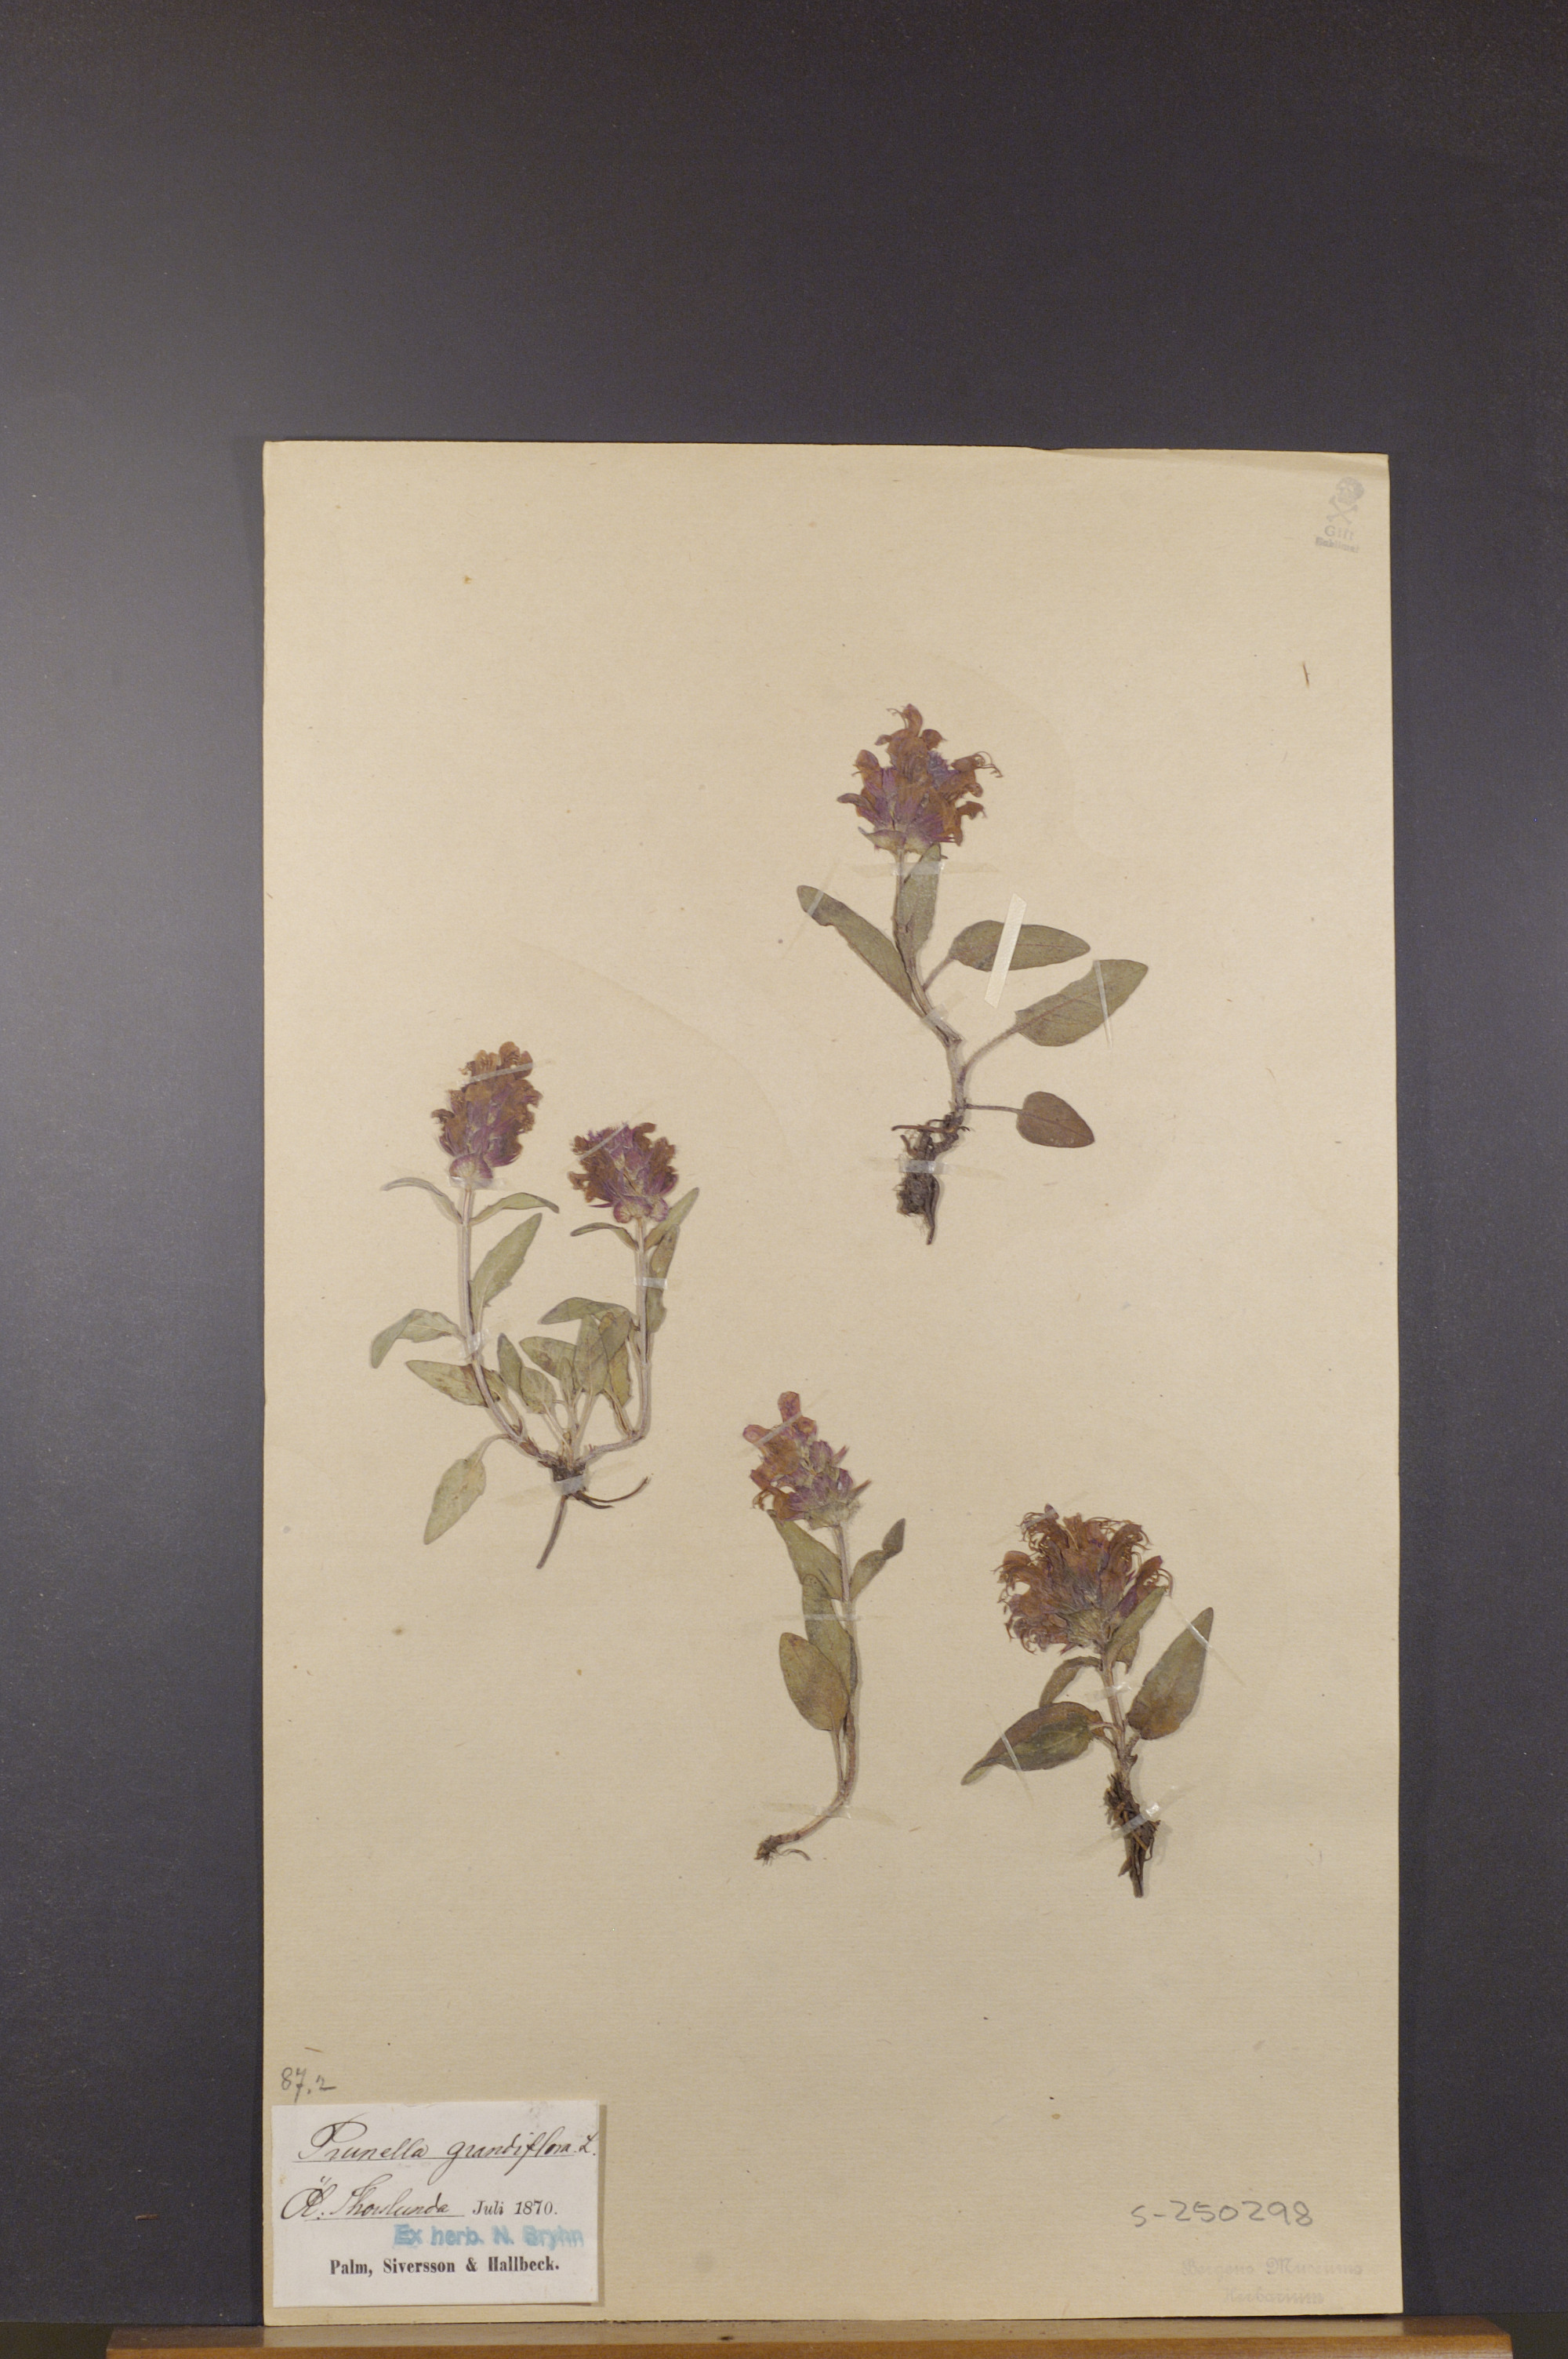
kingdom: Plantae
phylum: Tracheophyta
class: Magnoliopsida
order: Lamiales
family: Lamiaceae
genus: Prunella
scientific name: Prunella grandiflora
